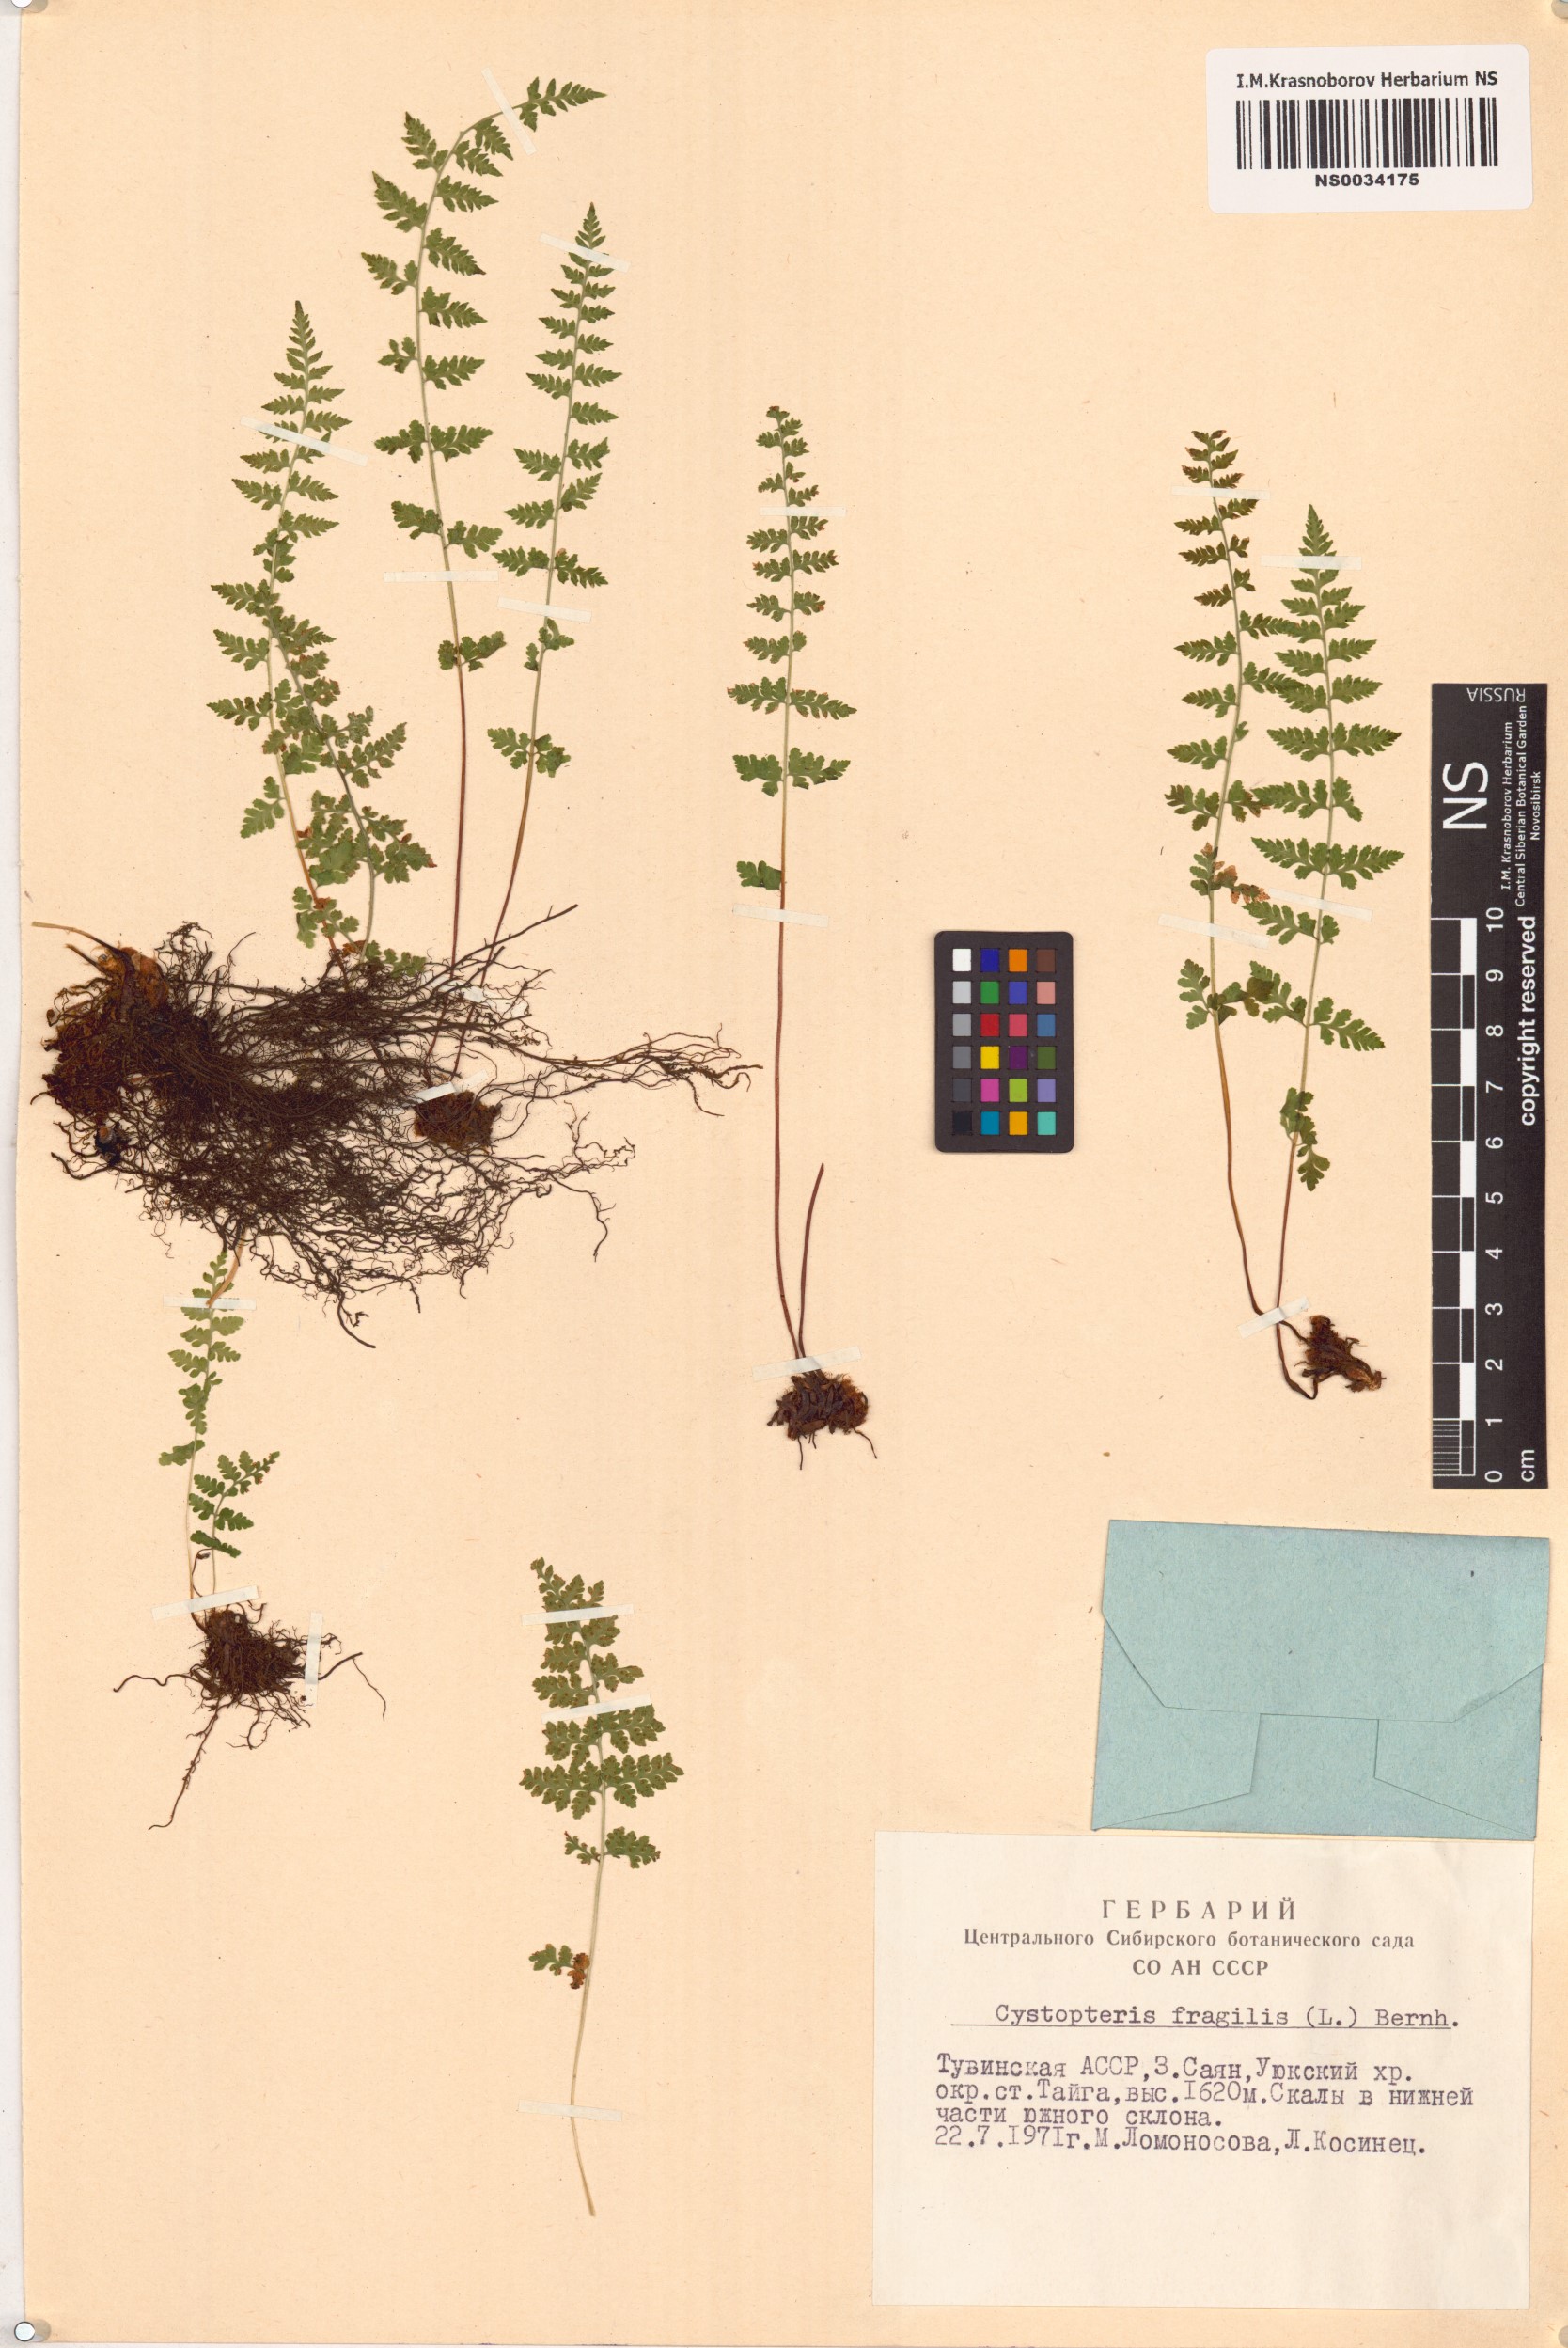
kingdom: Plantae
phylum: Tracheophyta
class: Polypodiopsida
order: Polypodiales
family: Cystopteridaceae
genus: Cystopteris
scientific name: Cystopteris fragilis
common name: Brittle bladder fern
